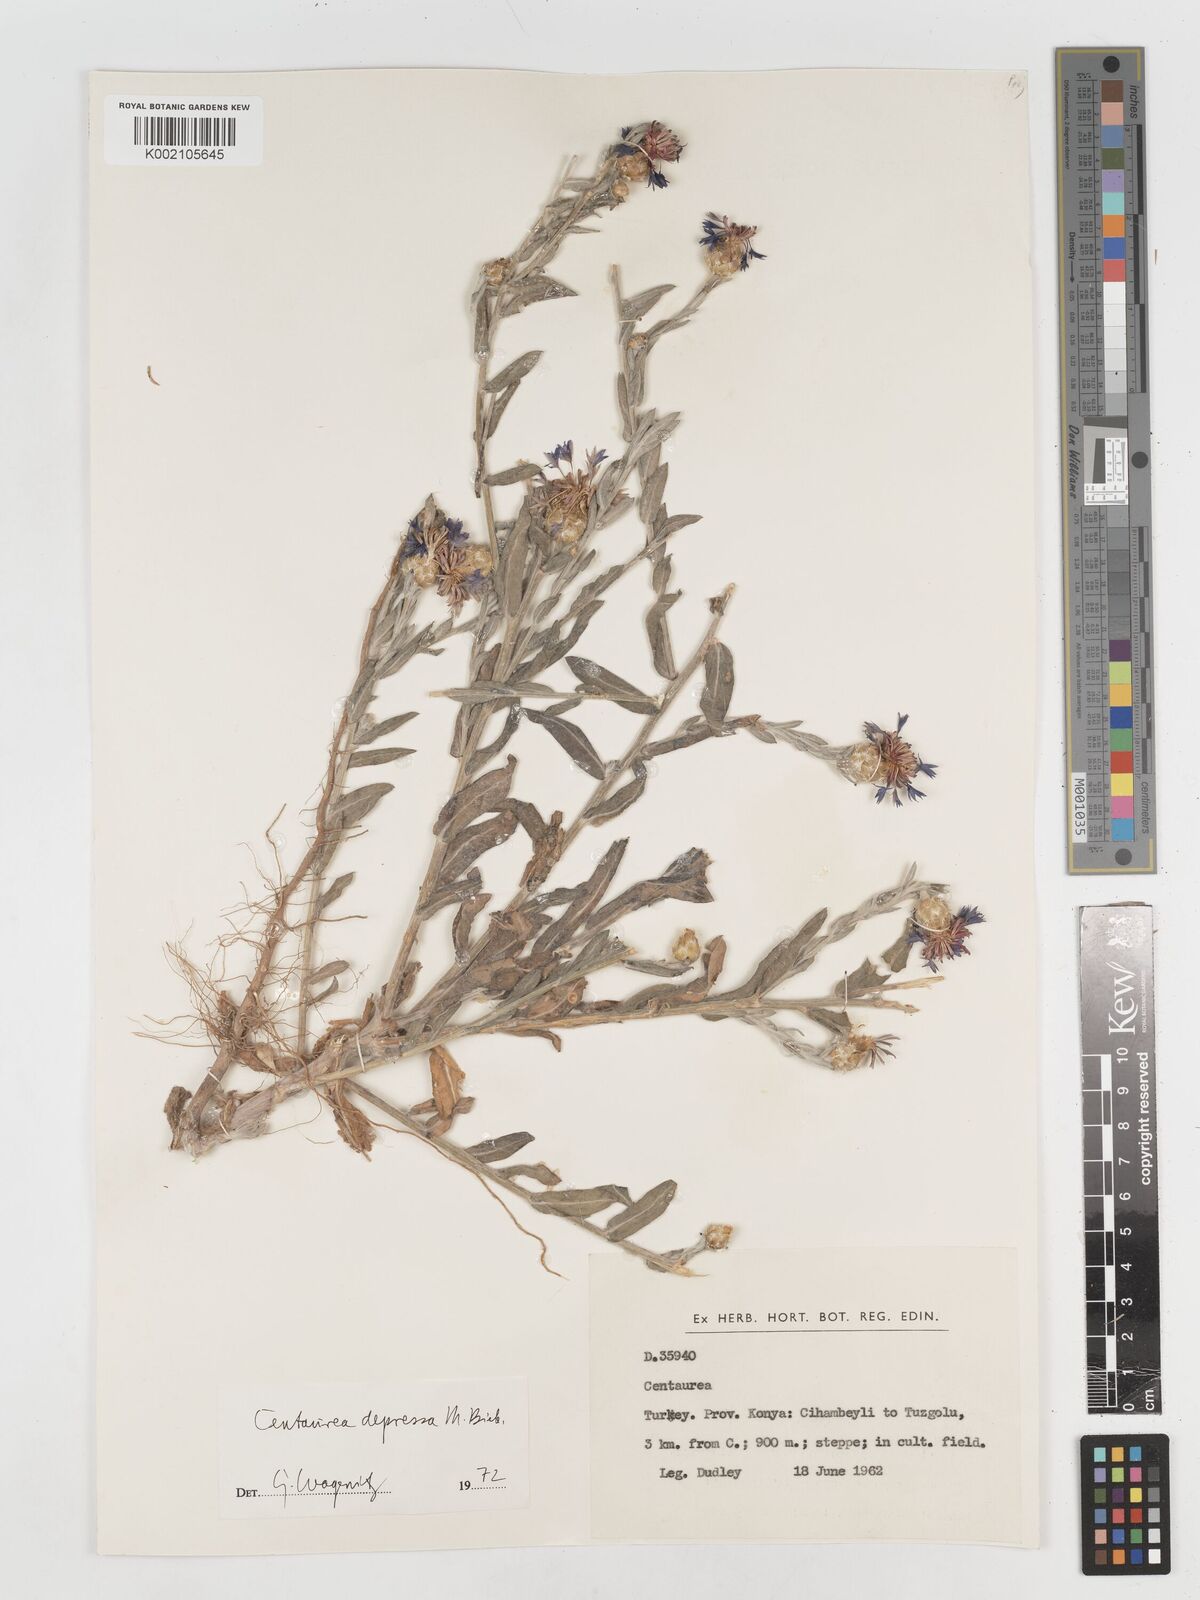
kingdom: Plantae
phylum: Tracheophyta
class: Magnoliopsida
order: Asterales
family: Asteraceae
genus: Centaurea
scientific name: Centaurea depressa
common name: Iranian knapweed
